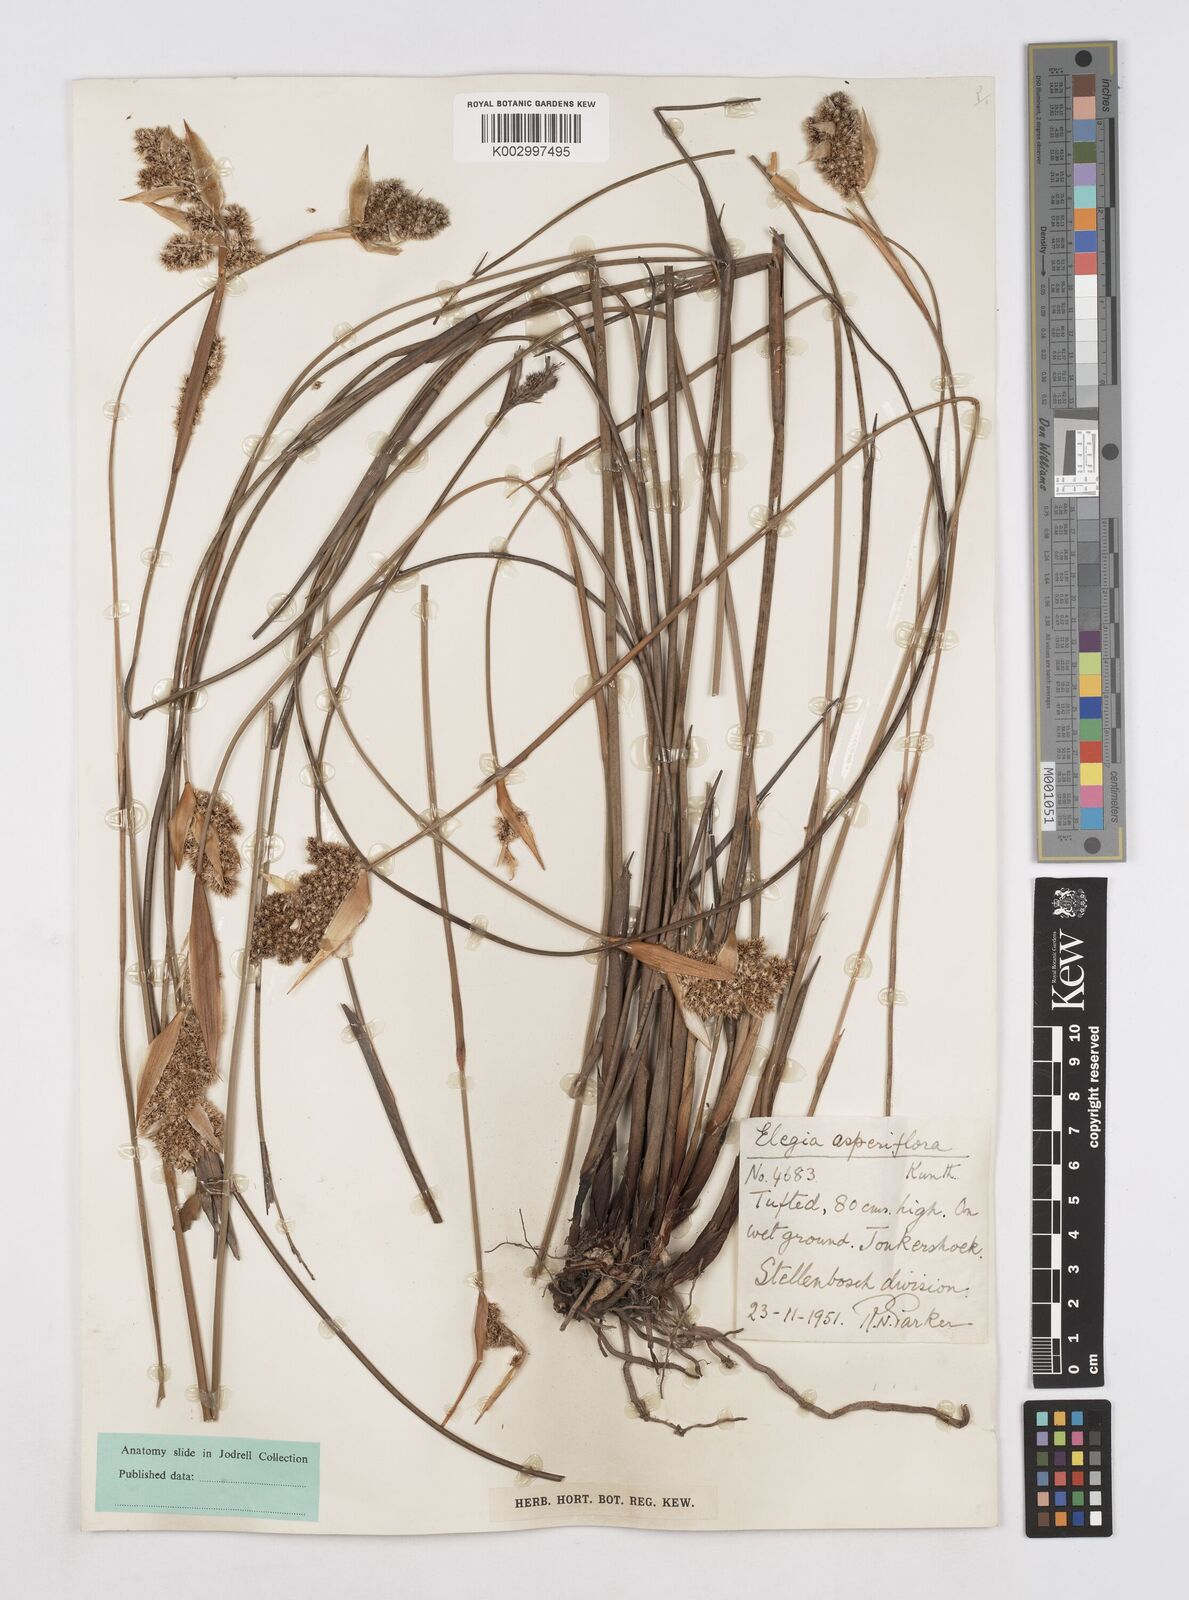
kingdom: Plantae
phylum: Tracheophyta
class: Liliopsida
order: Poales
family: Restionaceae
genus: Elegia
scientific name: Elegia asperiflora
